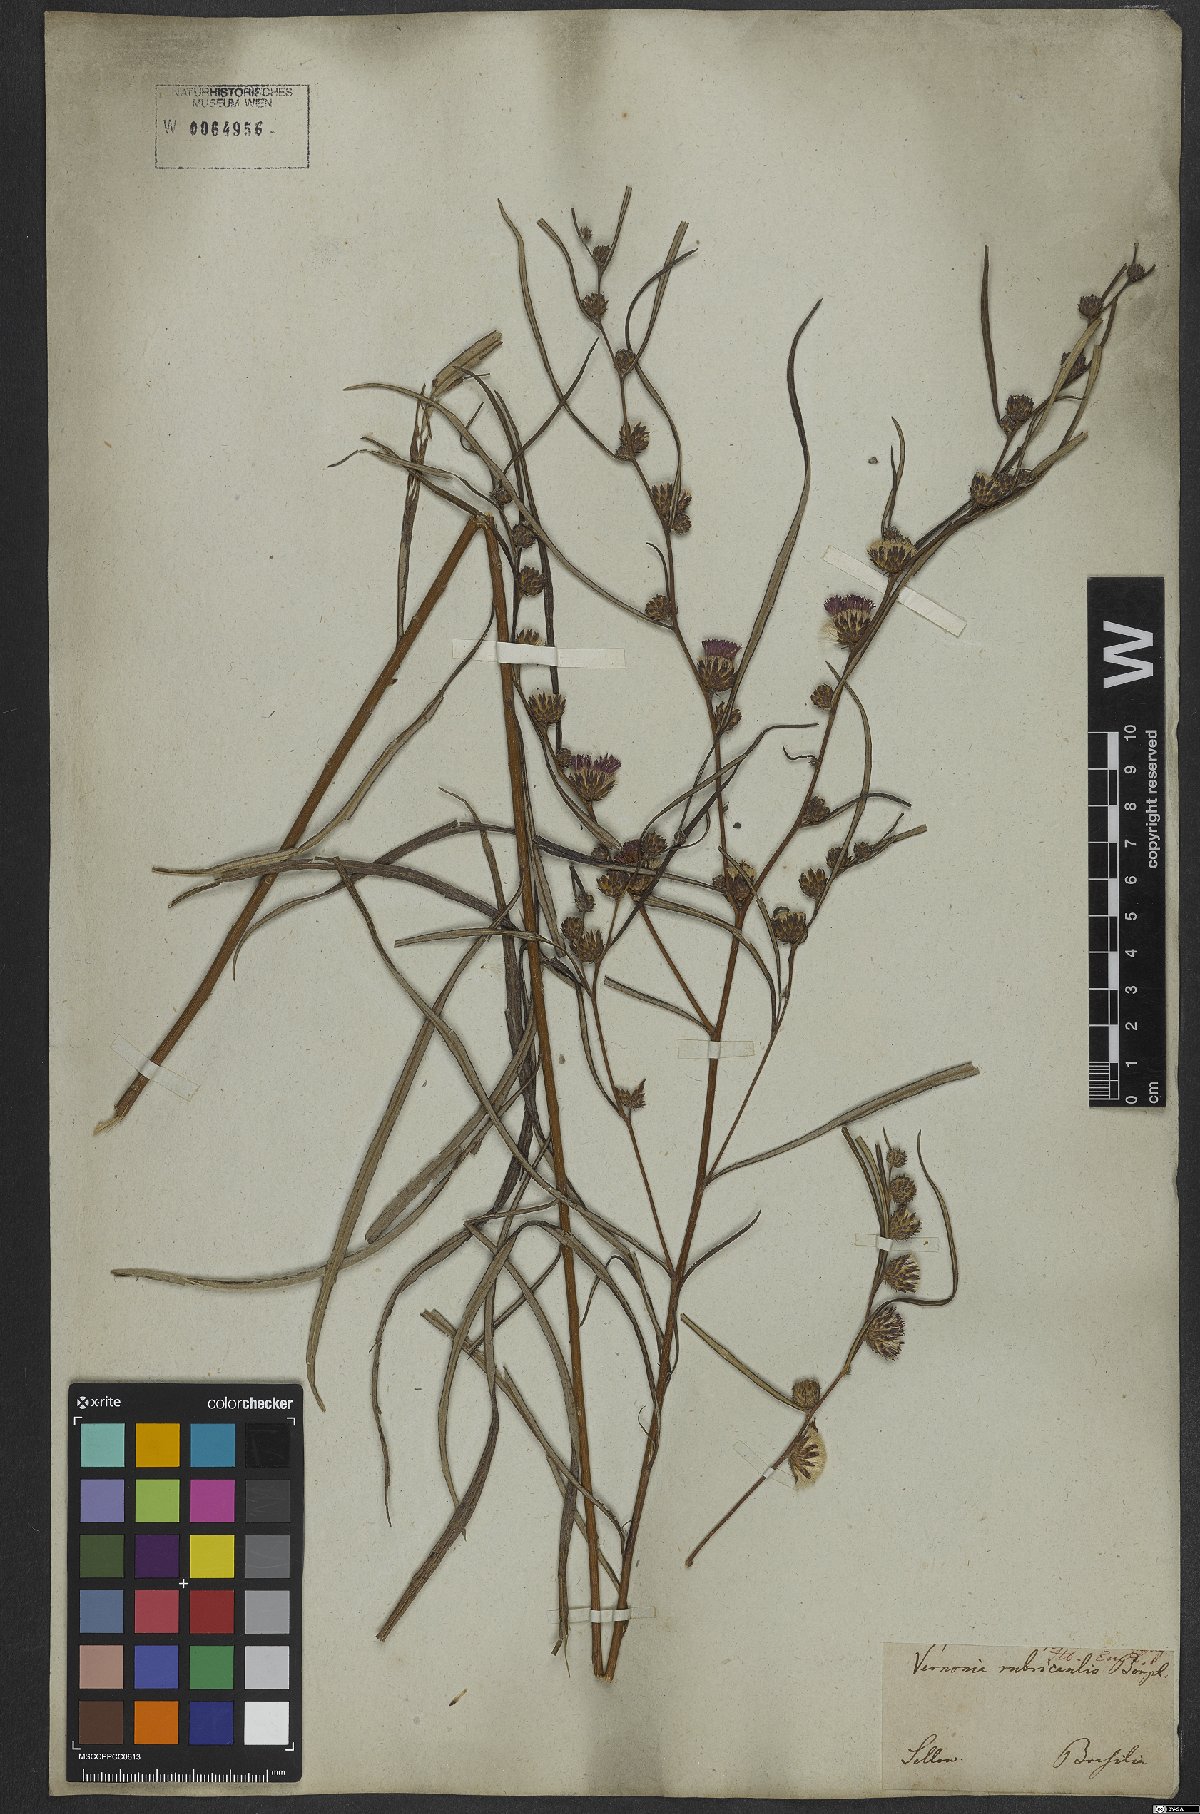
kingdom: Plantae
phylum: Tracheophyta
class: Magnoliopsida
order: Asterales
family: Asteraceae
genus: Lessingianthus
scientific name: Lessingianthus rubricaulis
